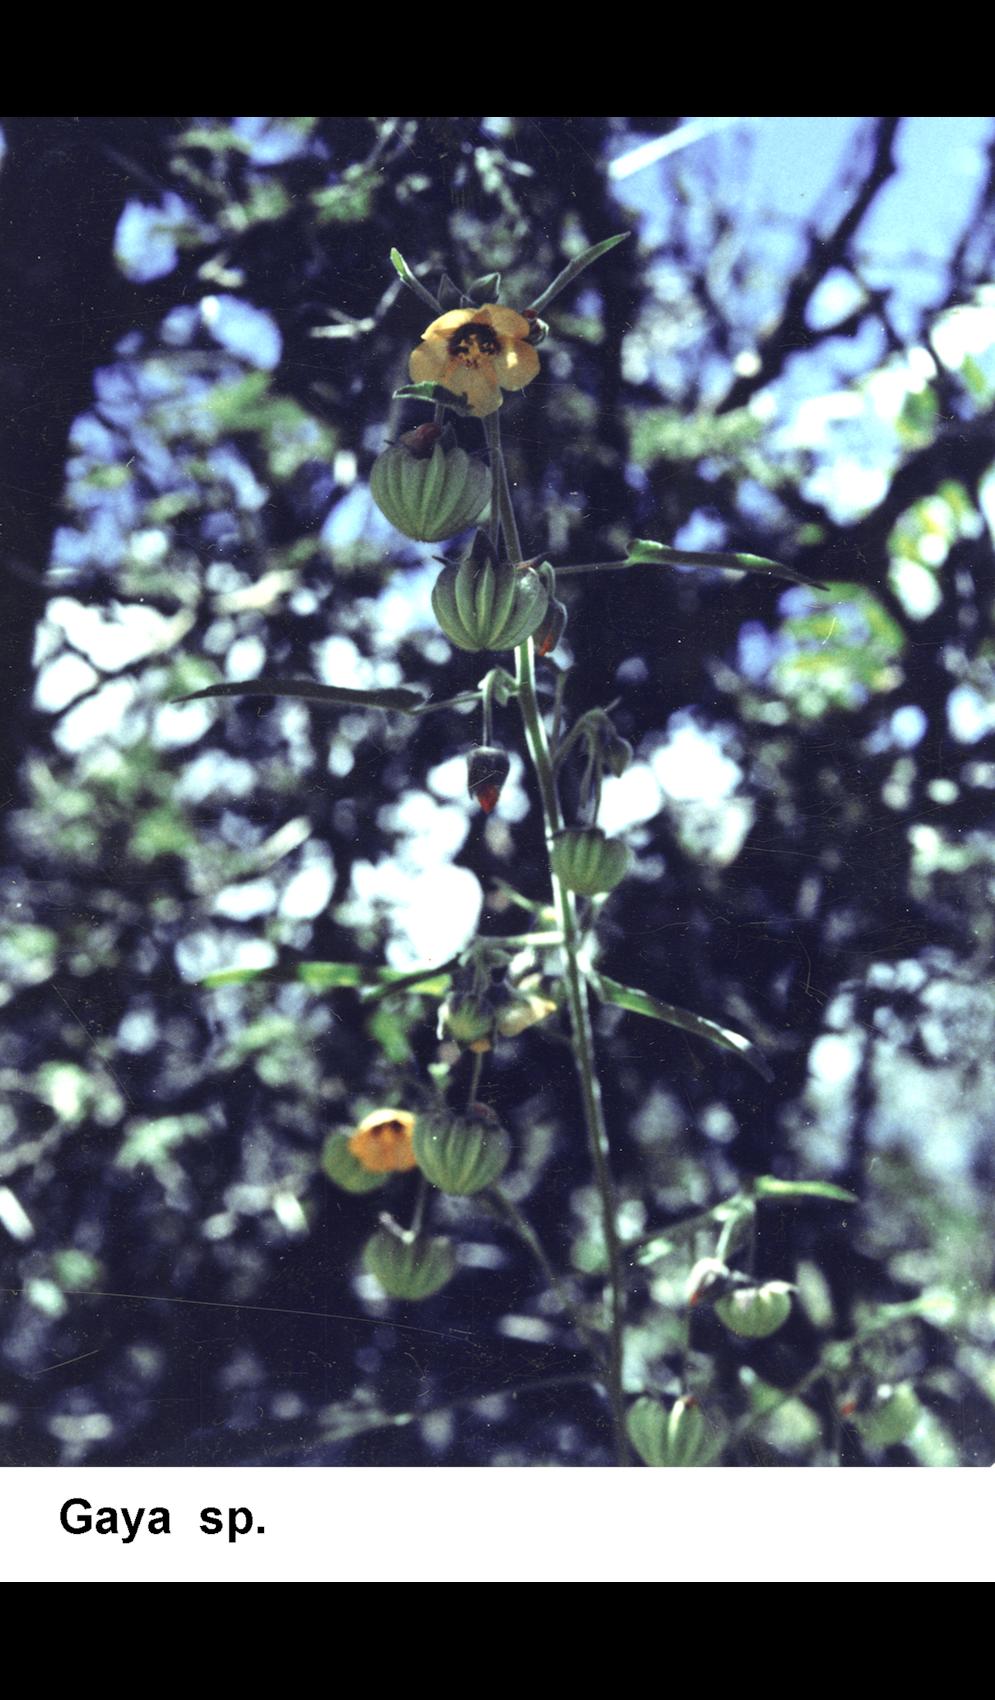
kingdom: Plantae
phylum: Tracheophyta
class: Magnoliopsida
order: Malvales
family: Malvaceae
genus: Gaya
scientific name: Gaya
